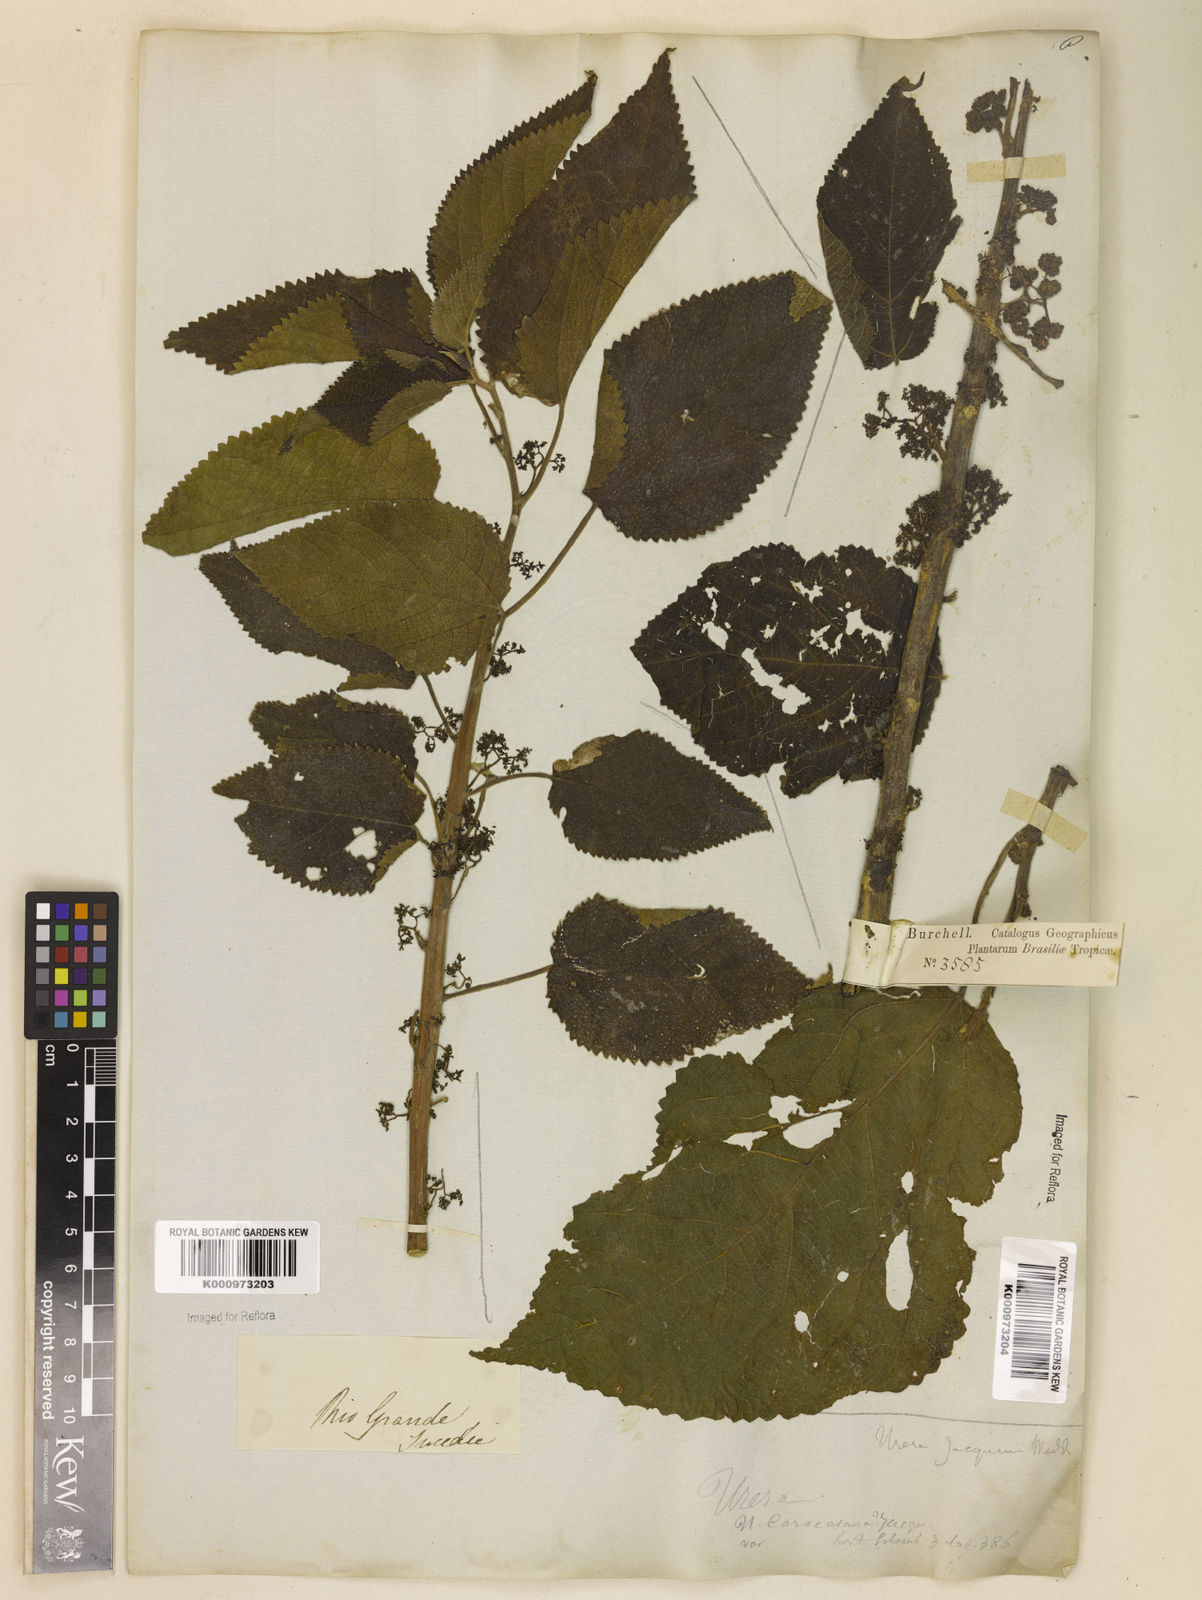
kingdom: Plantae
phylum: Tracheophyta
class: Magnoliopsida
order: Rosales
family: Urticaceae
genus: Urera
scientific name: Urera caracasana
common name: Flameberry
